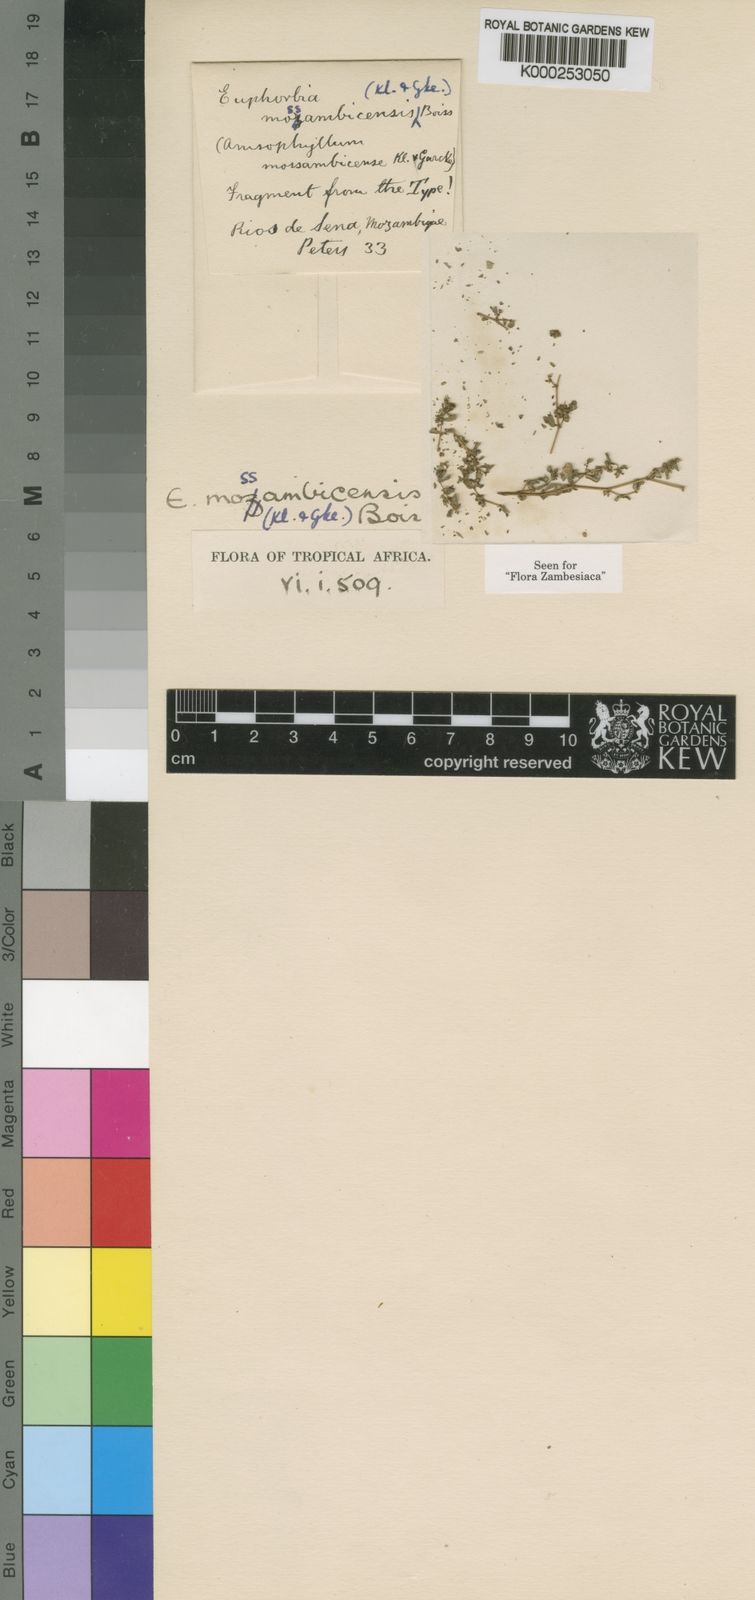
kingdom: Plantae
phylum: Tracheophyta
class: Magnoliopsida
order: Malpighiales
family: Euphorbiaceae
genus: Euphorbia
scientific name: Euphorbia mossambicensis
